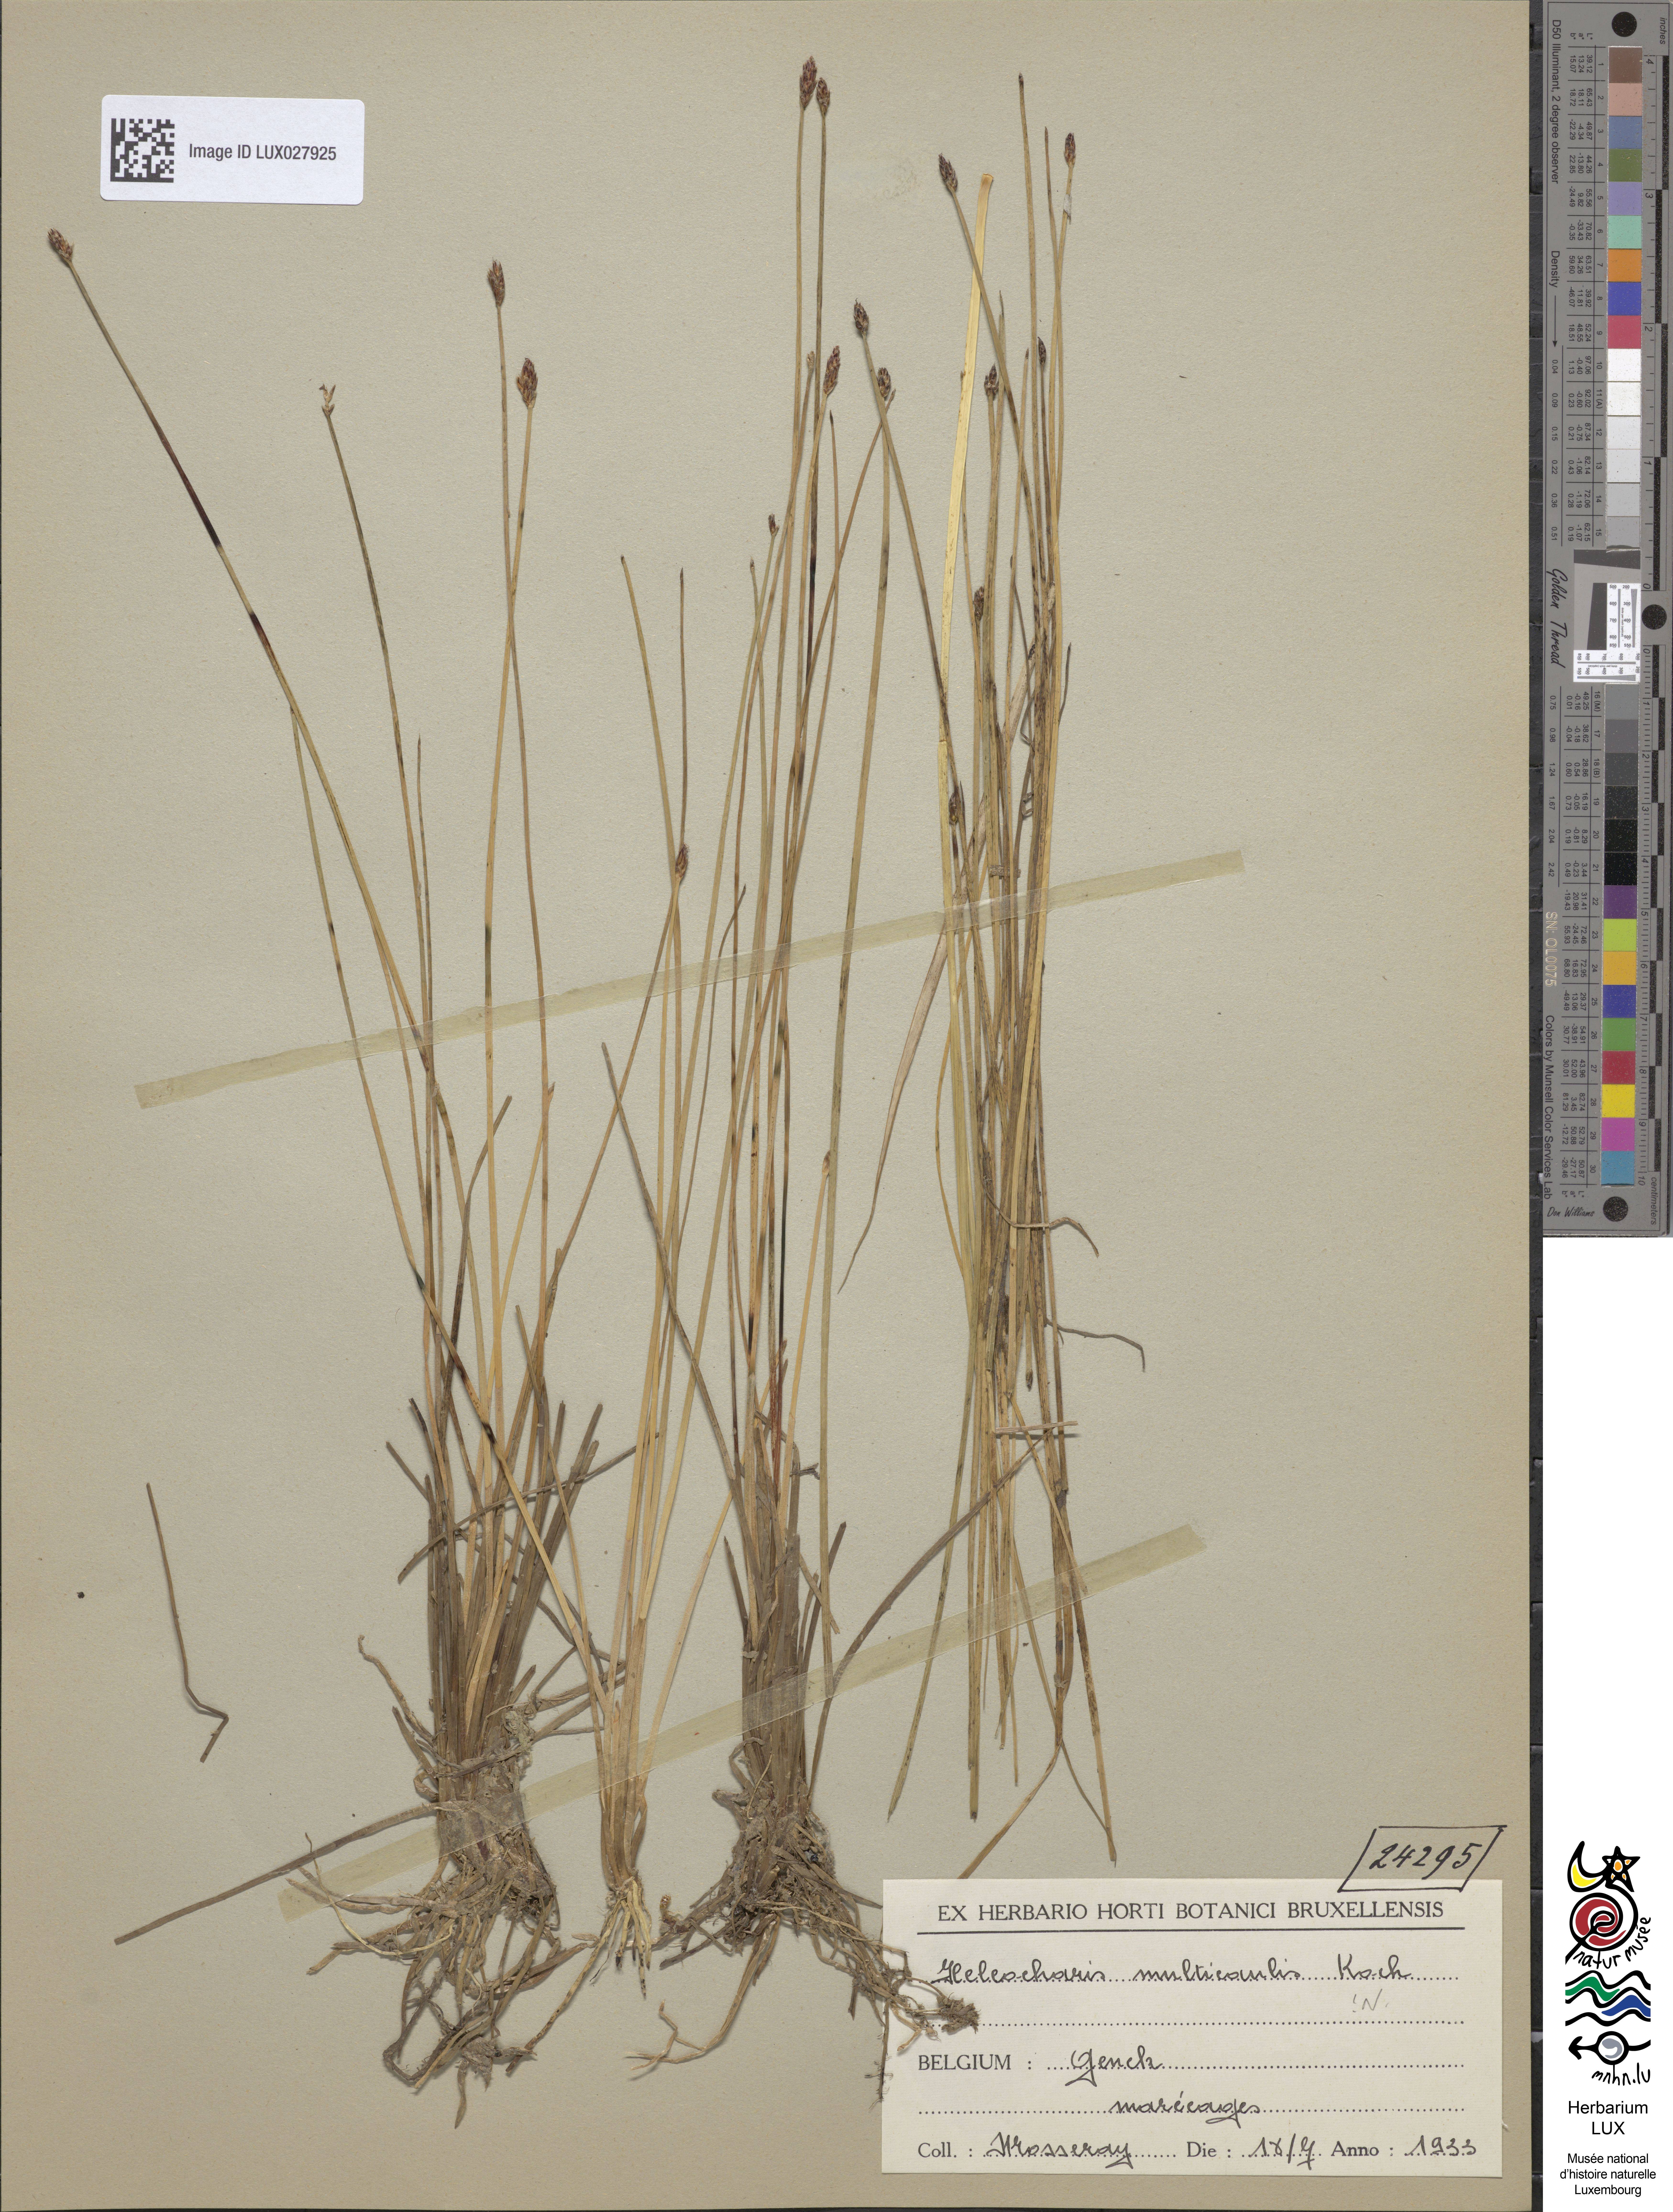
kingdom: Plantae
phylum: Tracheophyta
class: Liliopsida
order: Poales
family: Cyperaceae
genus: Eleocharis
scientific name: Eleocharis multicaulis
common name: Many-stalked spike-rush
